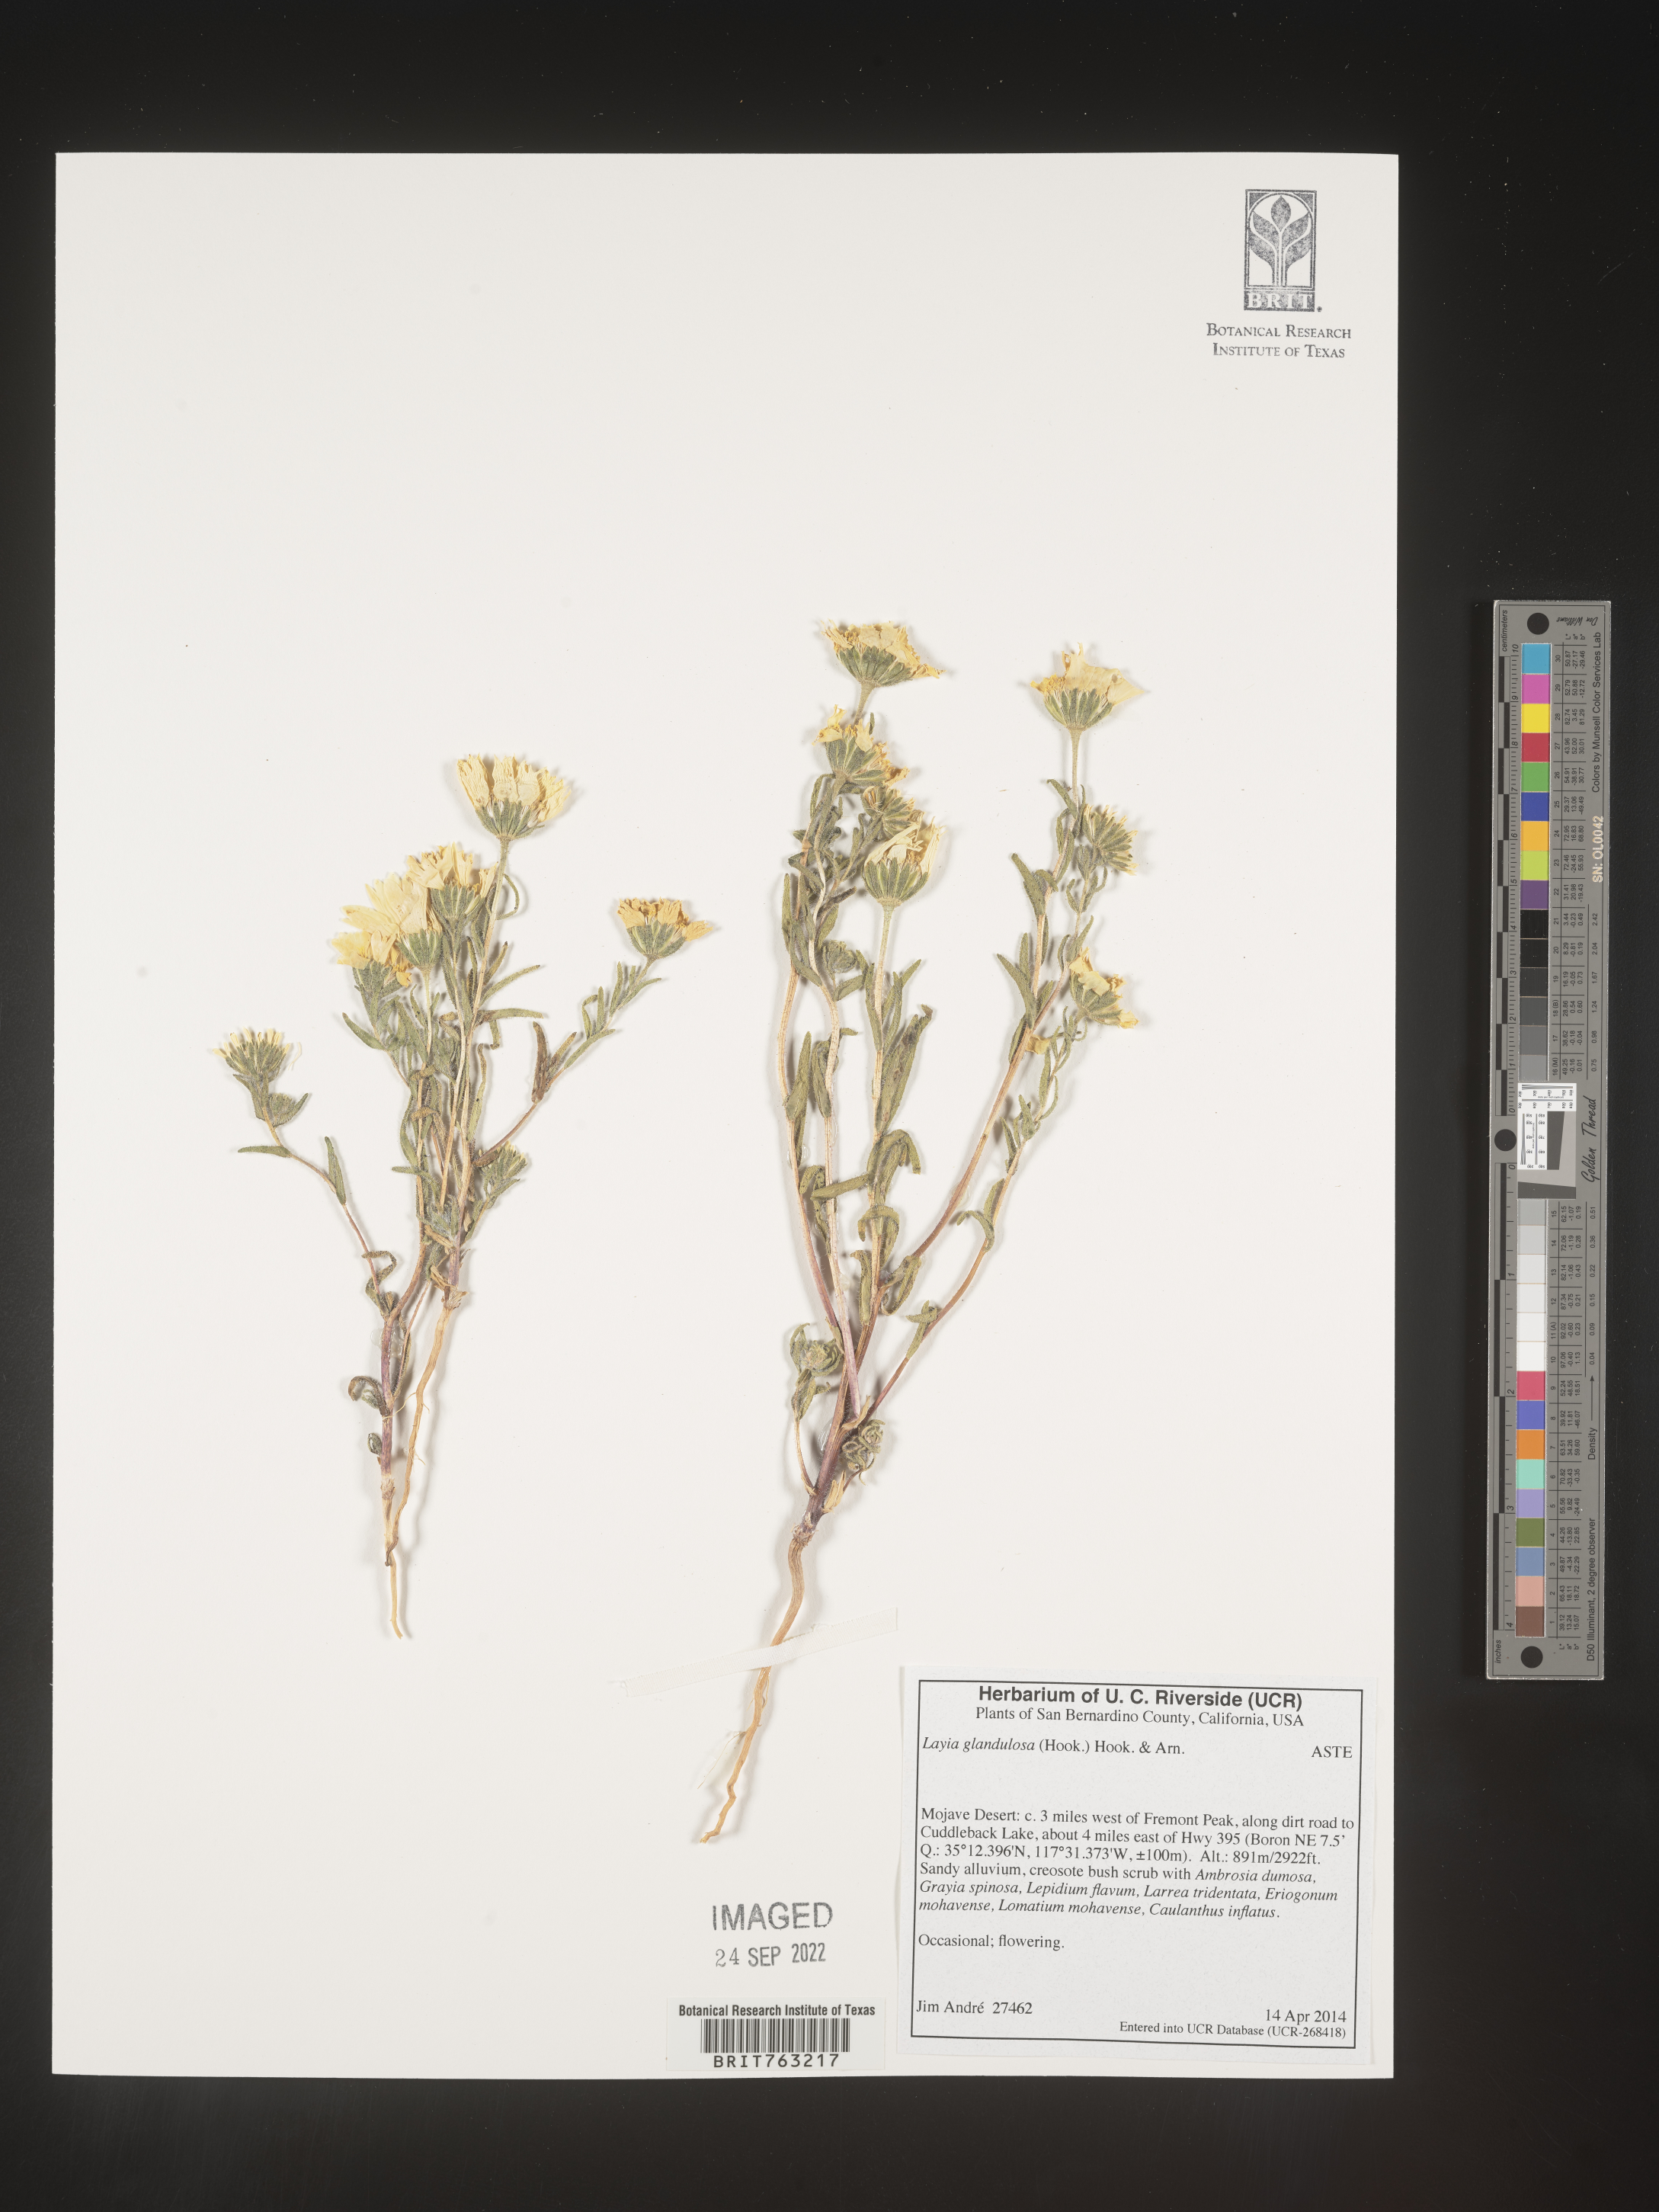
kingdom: Plantae
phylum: Tracheophyta
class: Magnoliopsida
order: Asterales
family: Asteraceae
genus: Layia
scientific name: Layia glandulosa
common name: White layia
